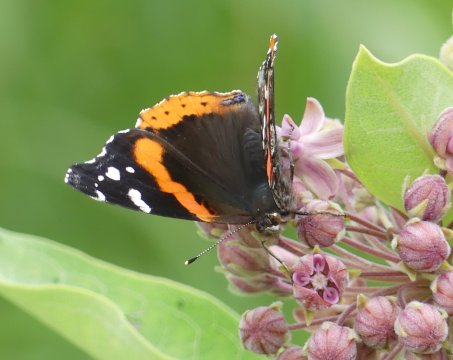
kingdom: Animalia
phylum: Arthropoda
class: Insecta
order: Lepidoptera
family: Nymphalidae
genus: Vanessa
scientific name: Vanessa atalanta
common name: Red Admiral
